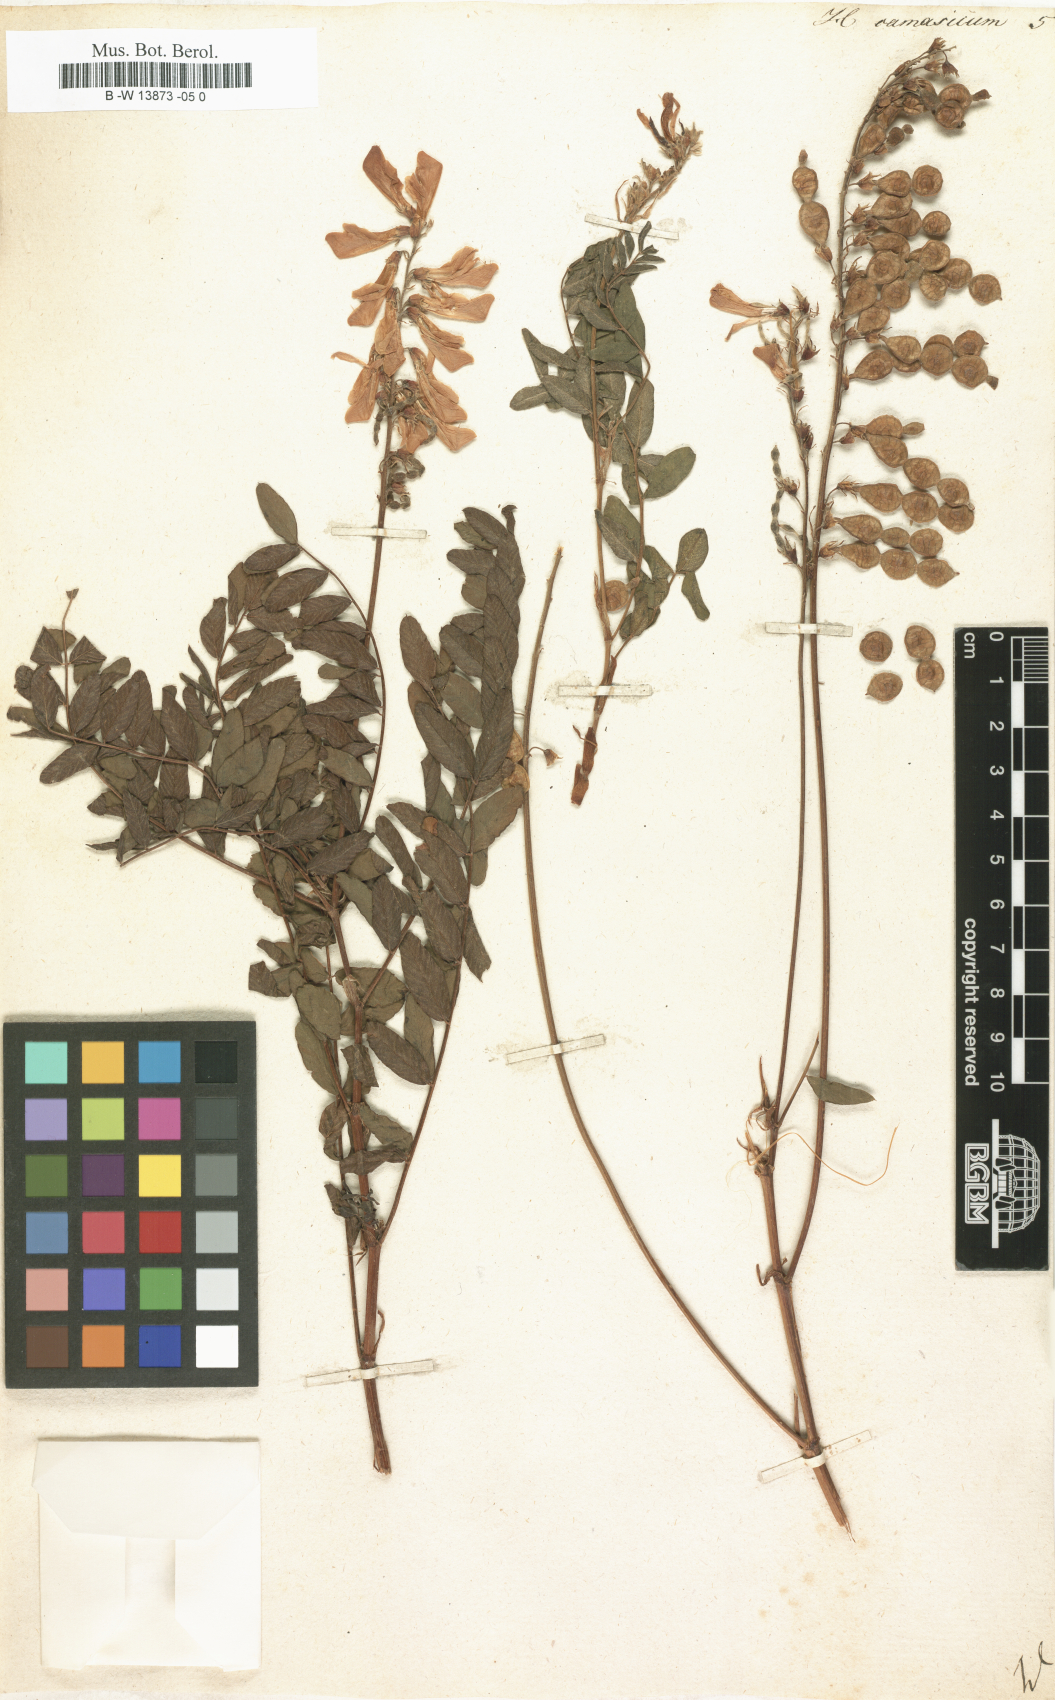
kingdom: Plantae
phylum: Tracheophyta
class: Magnoliopsida
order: Fabales
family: Fabaceae
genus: Hedysarum
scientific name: Hedysarum caucasicum
